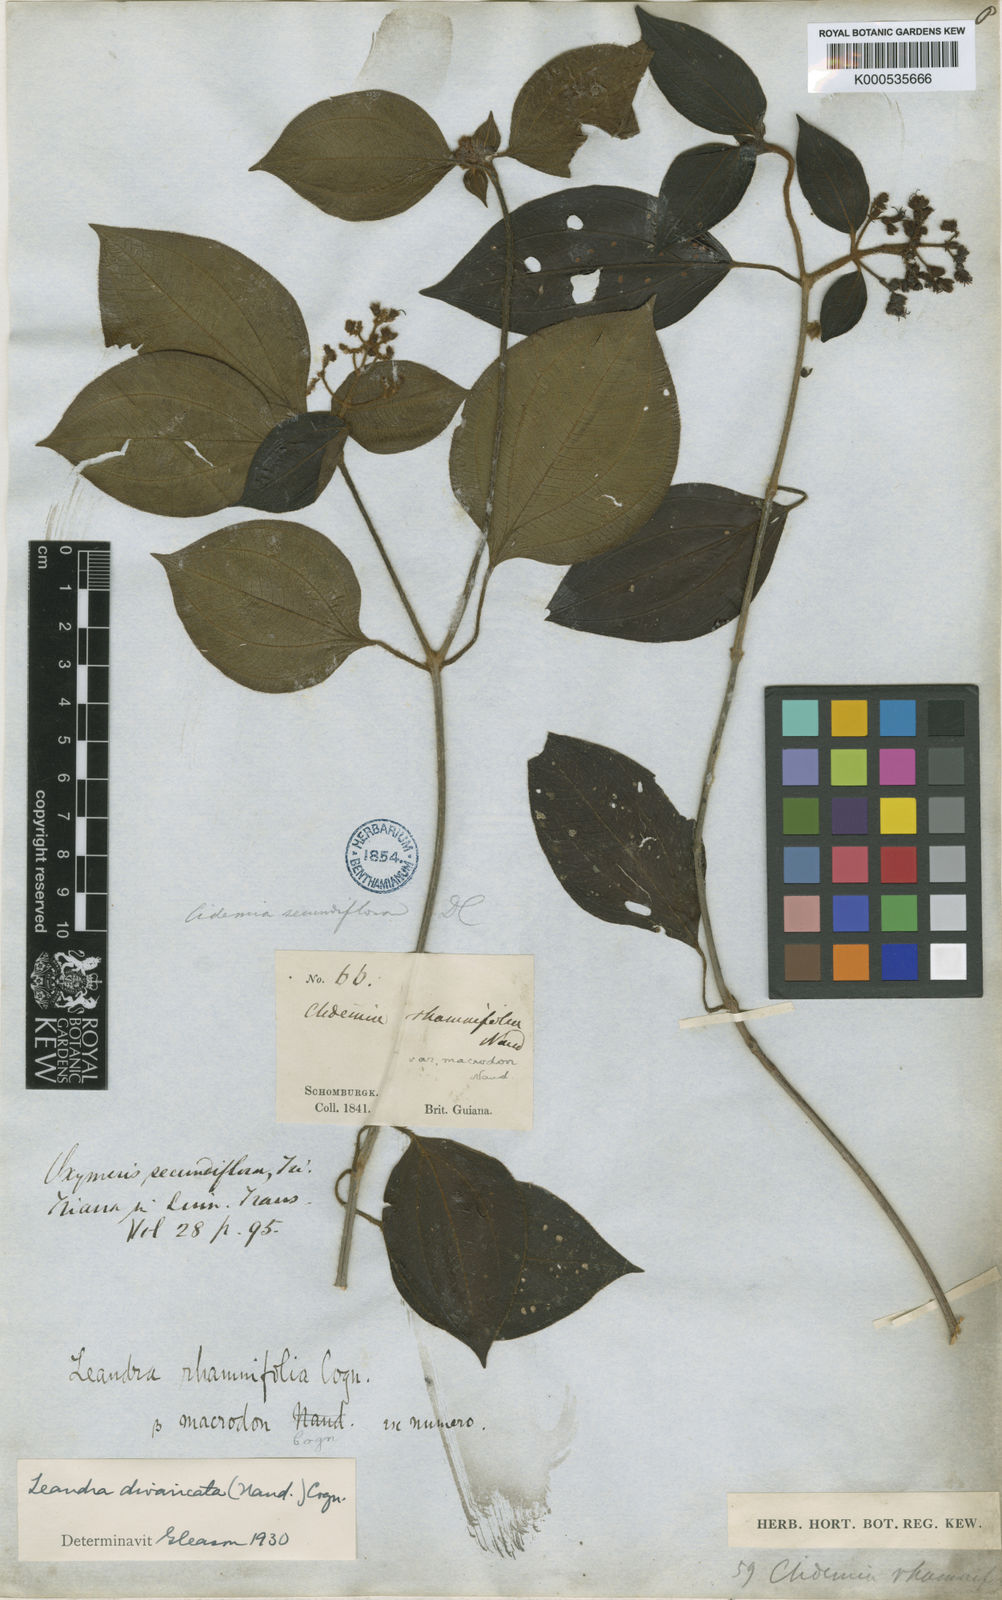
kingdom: Plantae
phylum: Tracheophyta
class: Magnoliopsida
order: Myrtales
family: Melastomataceae
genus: Miconia
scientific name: Miconia secundivaricata
